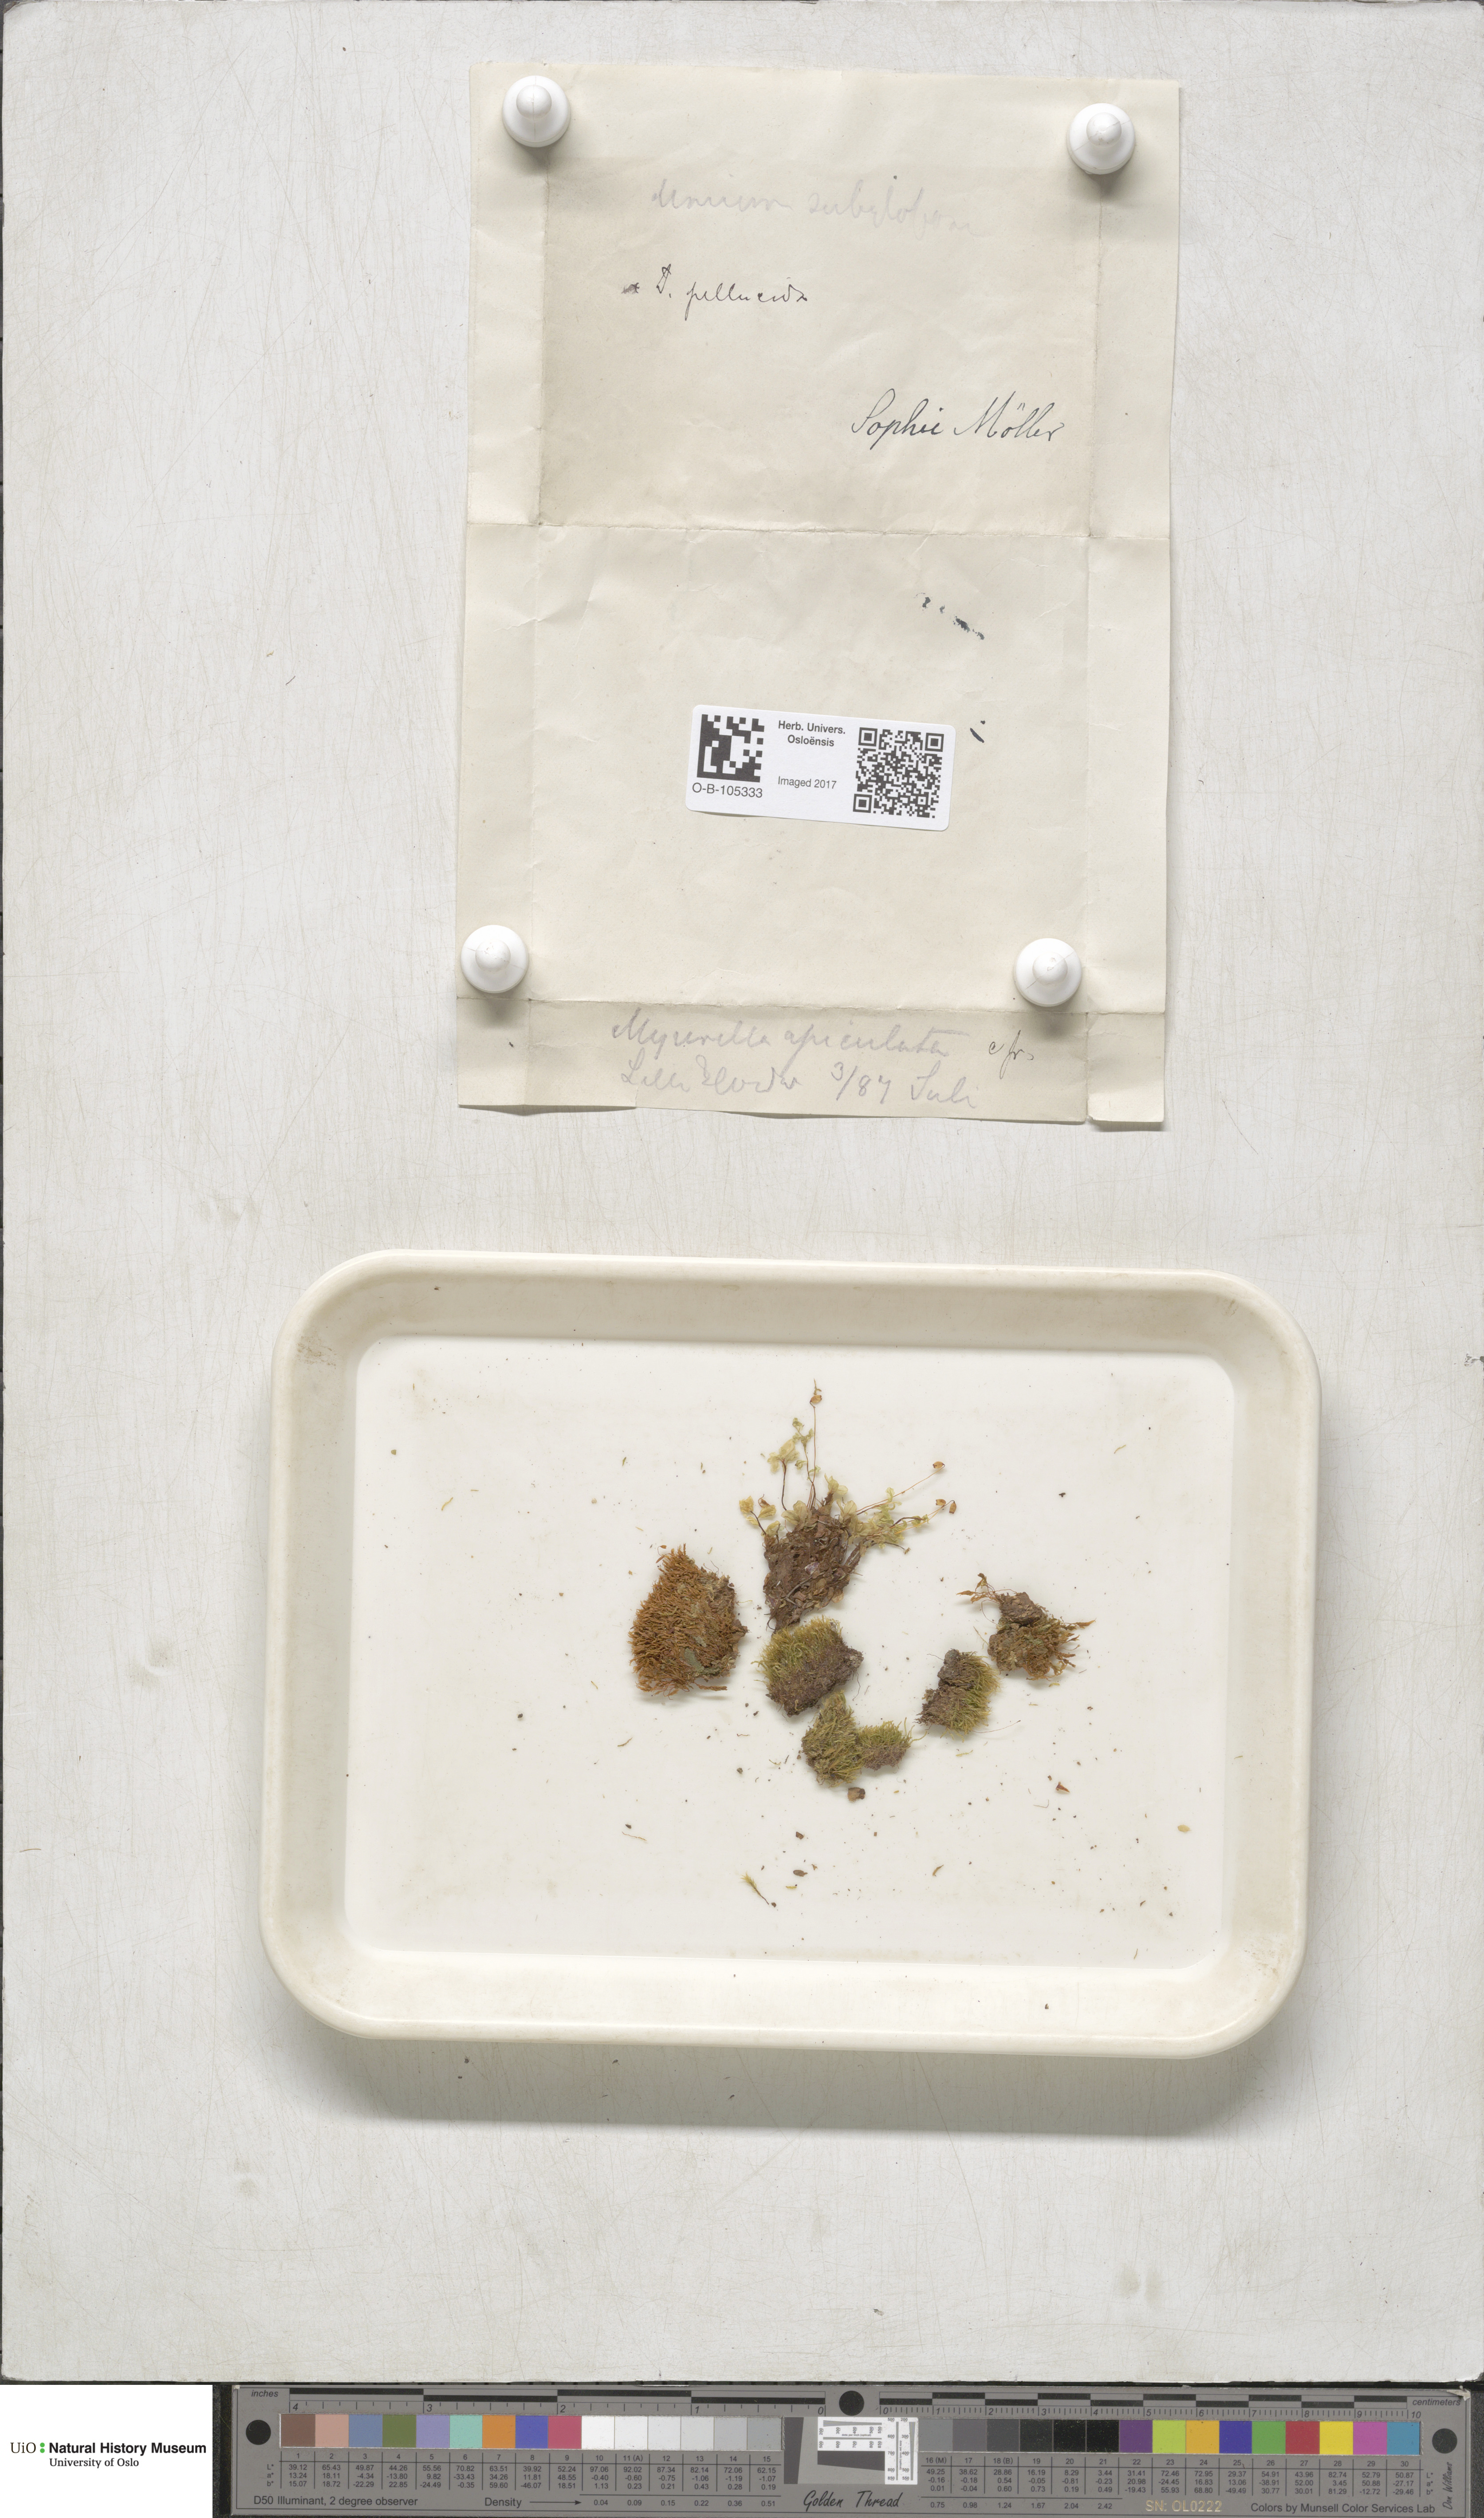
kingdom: Plantae
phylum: Bryophyta
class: Bryopsida
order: Hypnales
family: Plagiotheciaceae
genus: Myurella
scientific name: Myurella tenerrima
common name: Dwarf mousetail moss
